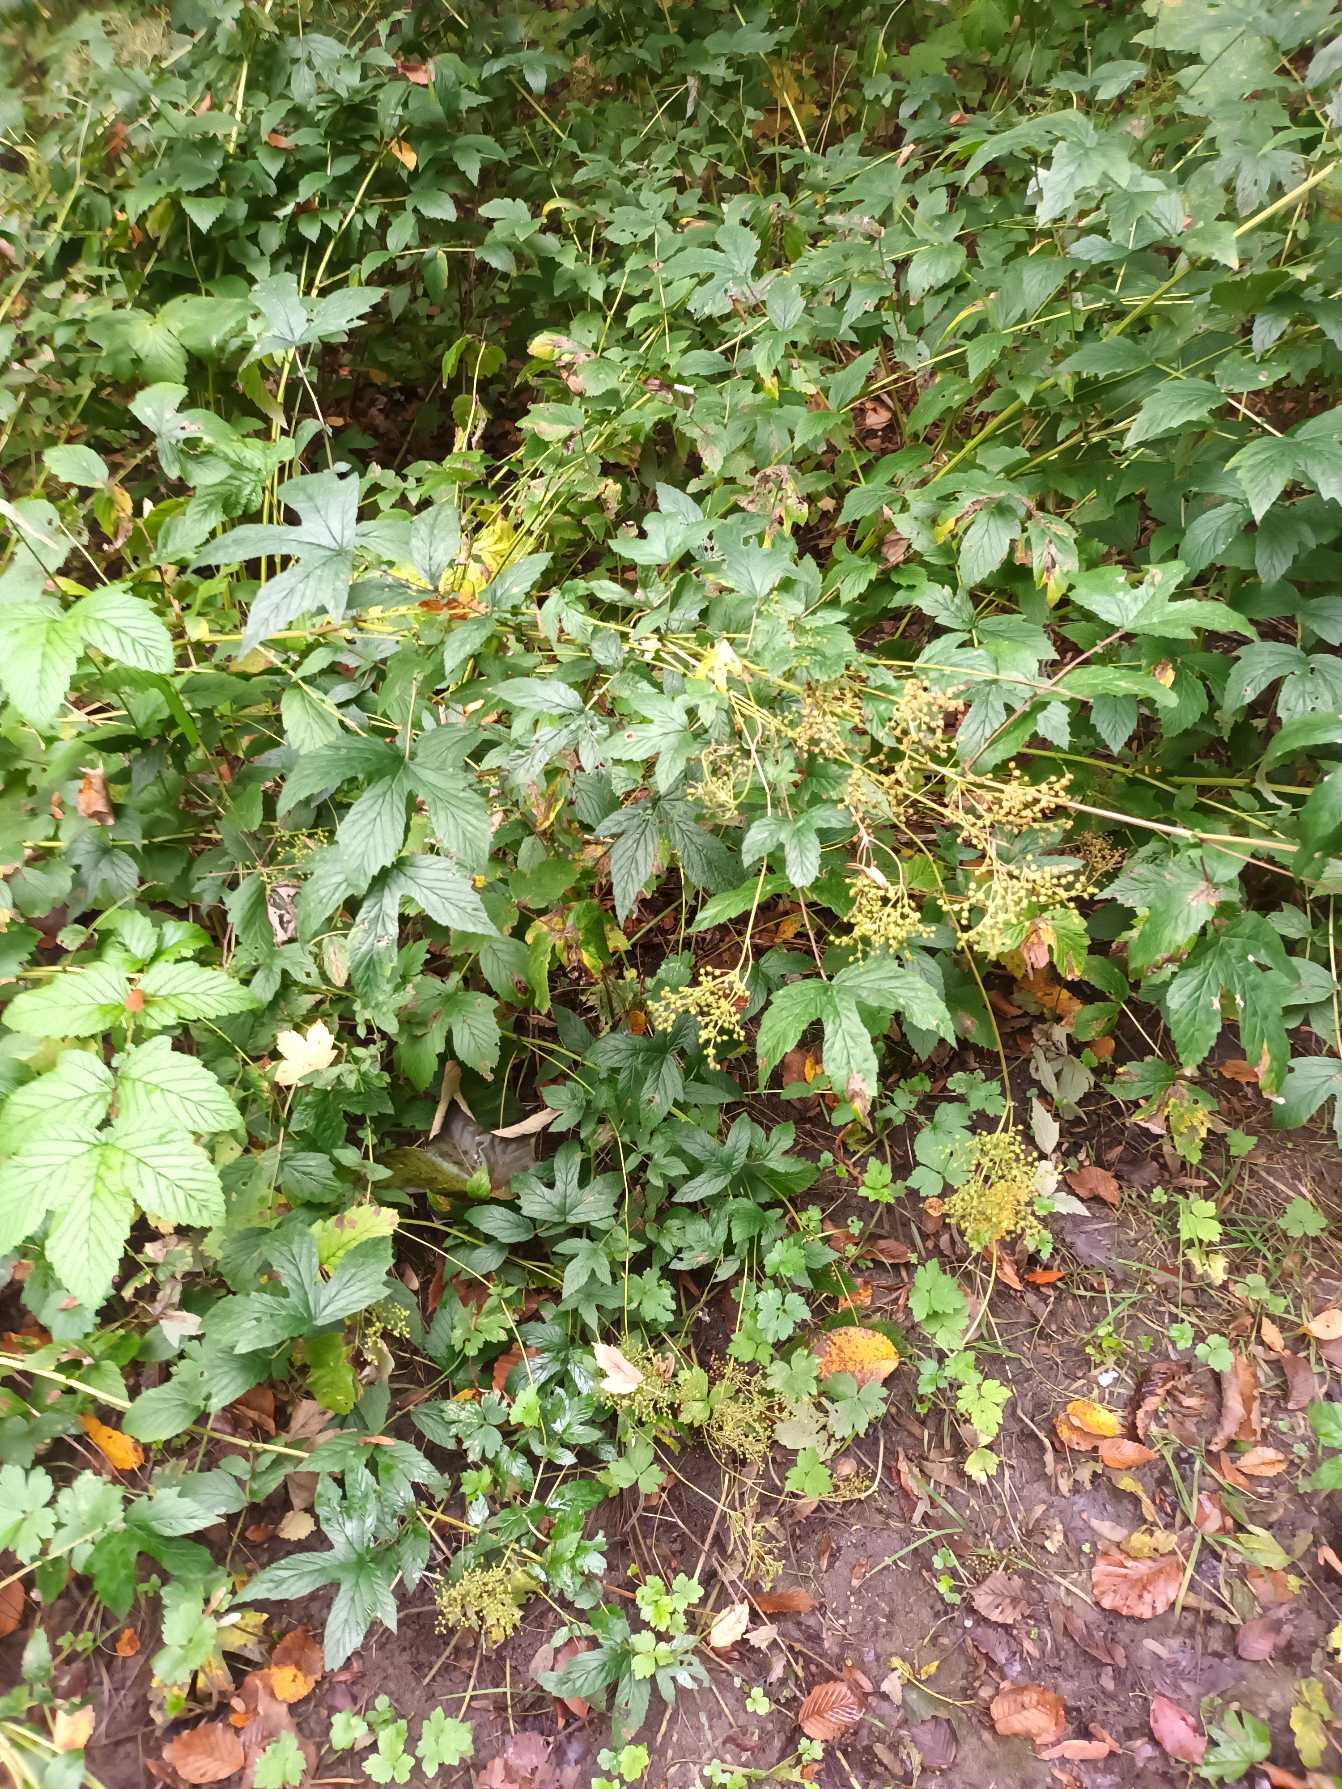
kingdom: Plantae
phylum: Tracheophyta
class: Magnoliopsida
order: Rosales
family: Rosaceae
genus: Filipendula
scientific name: Filipendula ulmaria
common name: Almindelig mjødurt
